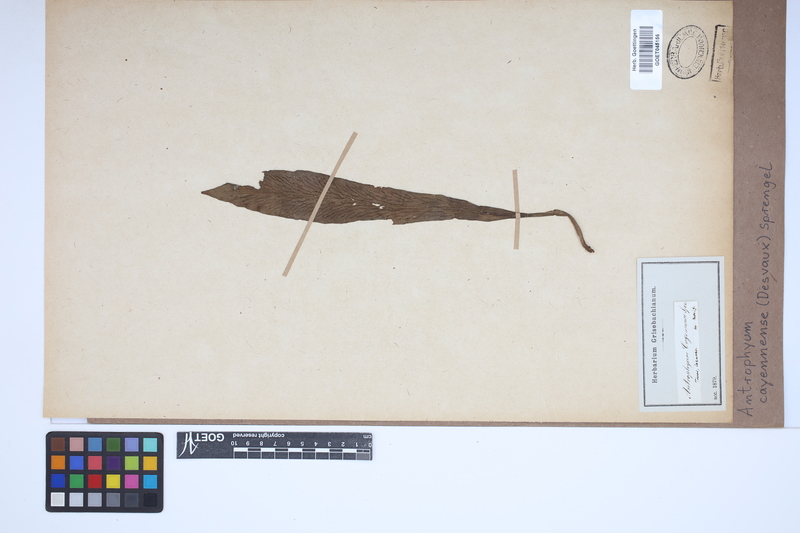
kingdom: Plantae
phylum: Tracheophyta
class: Polypodiopsida
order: Polypodiales
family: Pteridaceae
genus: Polytaenium
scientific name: Polytaenium cajenense
